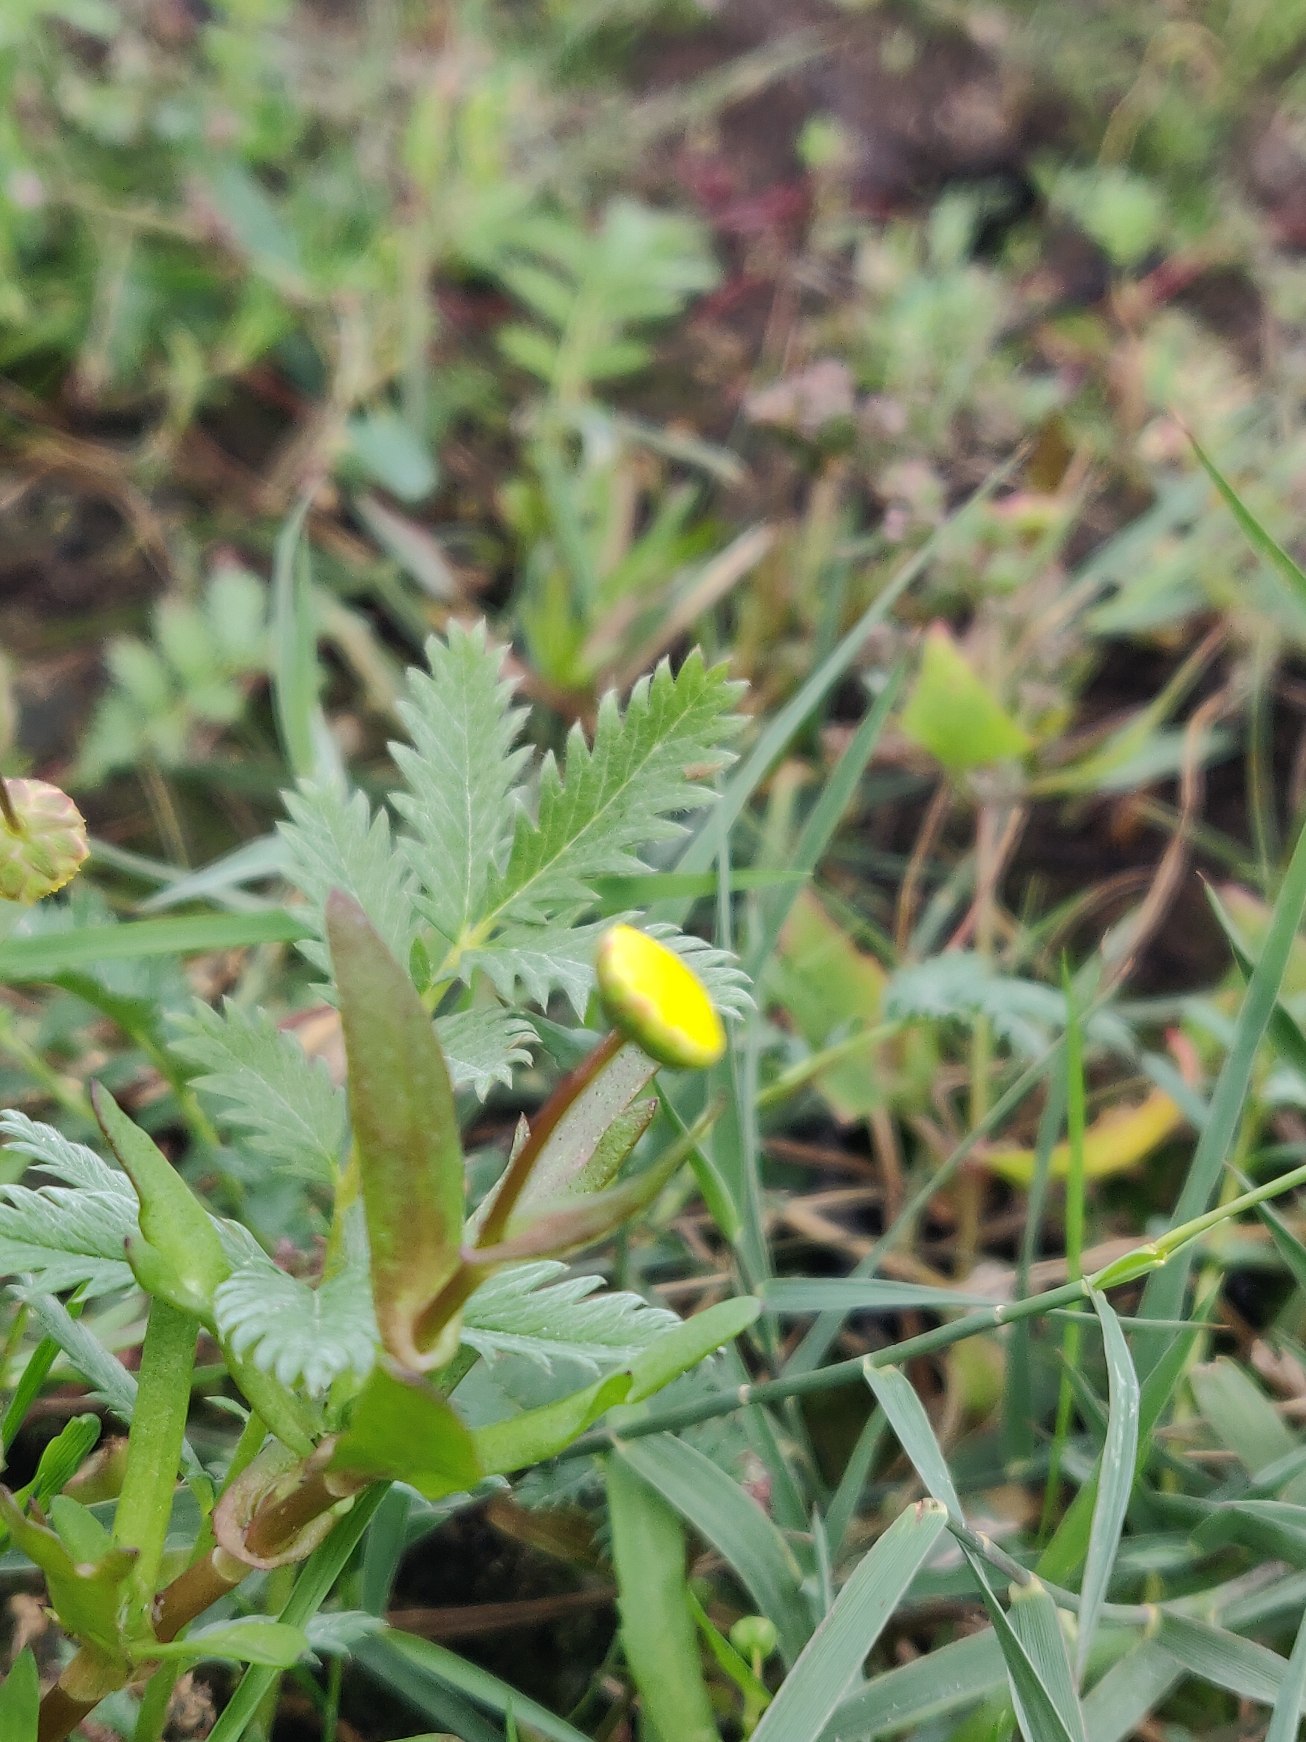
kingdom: Plantae
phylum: Tracheophyta
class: Magnoliopsida
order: Asterales
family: Asteraceae
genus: Cotula
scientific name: Cotula coronopifolia
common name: Firkløft
